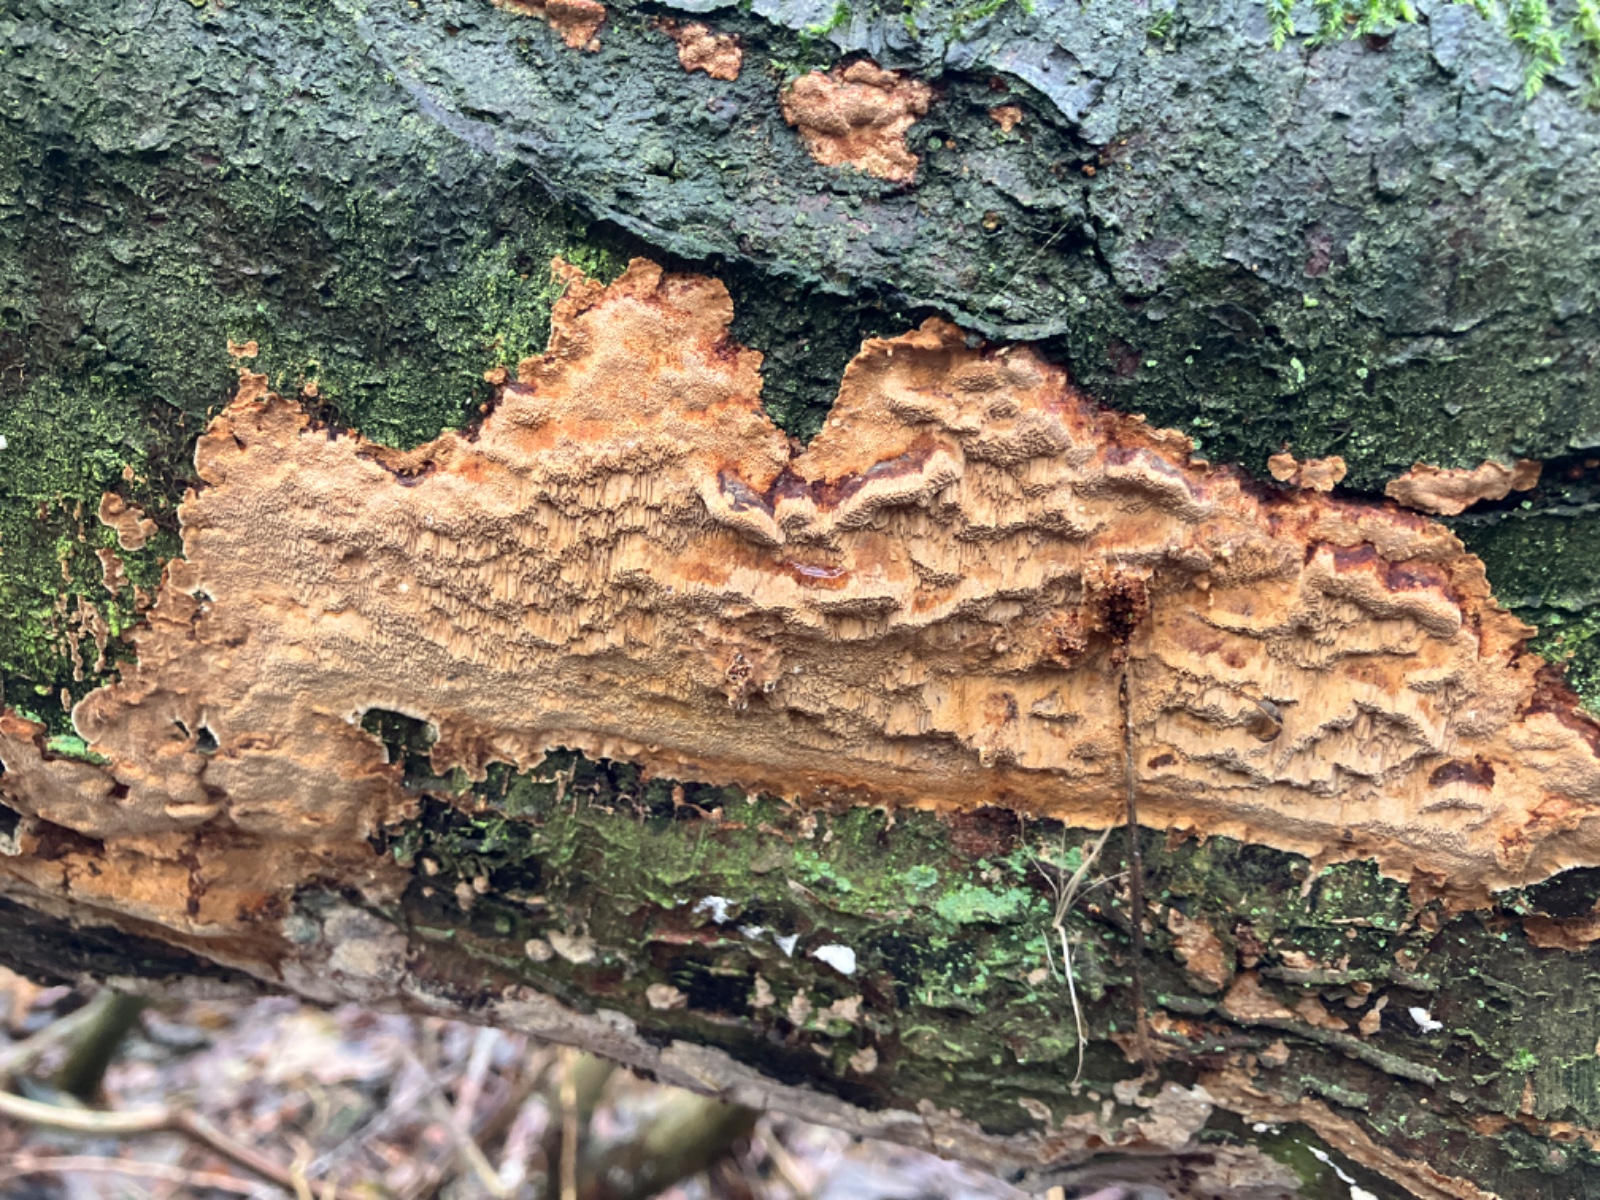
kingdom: Fungi
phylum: Basidiomycota
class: Agaricomycetes
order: Hymenochaetales
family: Hymenochaetaceae
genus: Fuscoporia
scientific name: Fuscoporia ferrea
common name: skorpe-ildporesvamp
